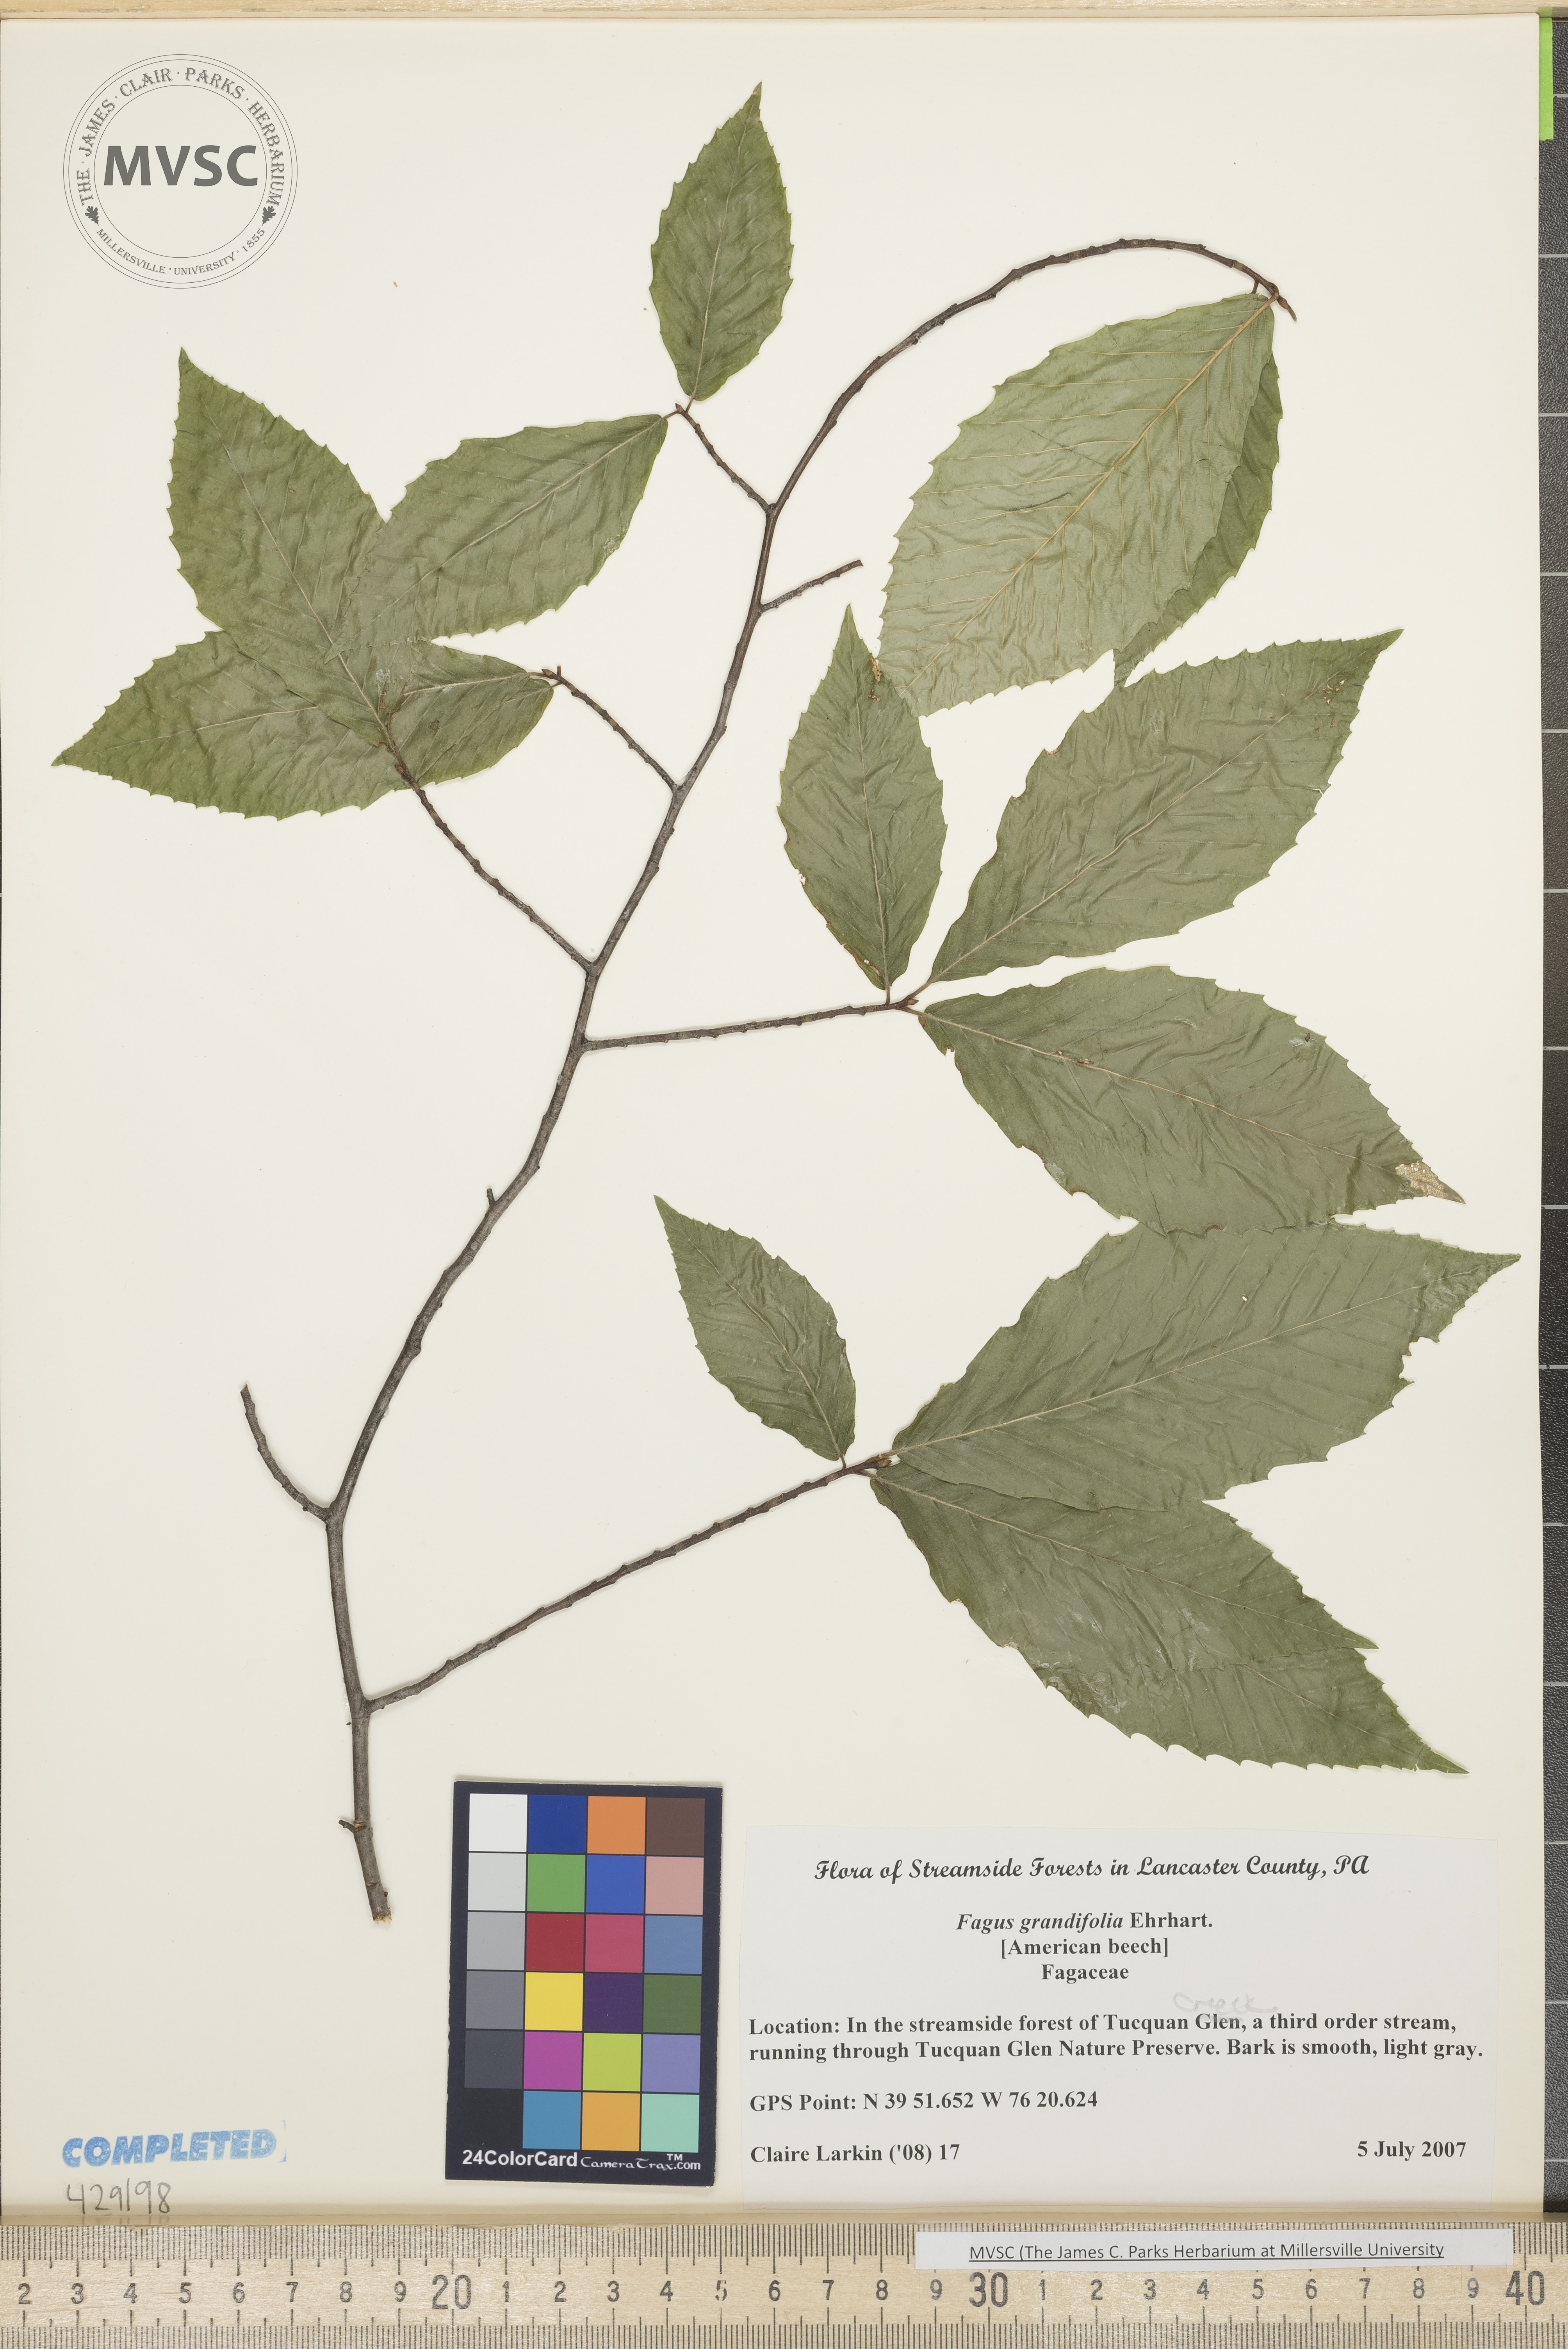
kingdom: Plantae
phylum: Tracheophyta
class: Magnoliopsida
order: Fagales
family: Fagaceae
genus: Fagus
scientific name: Fagus grandifolia
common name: Beech
